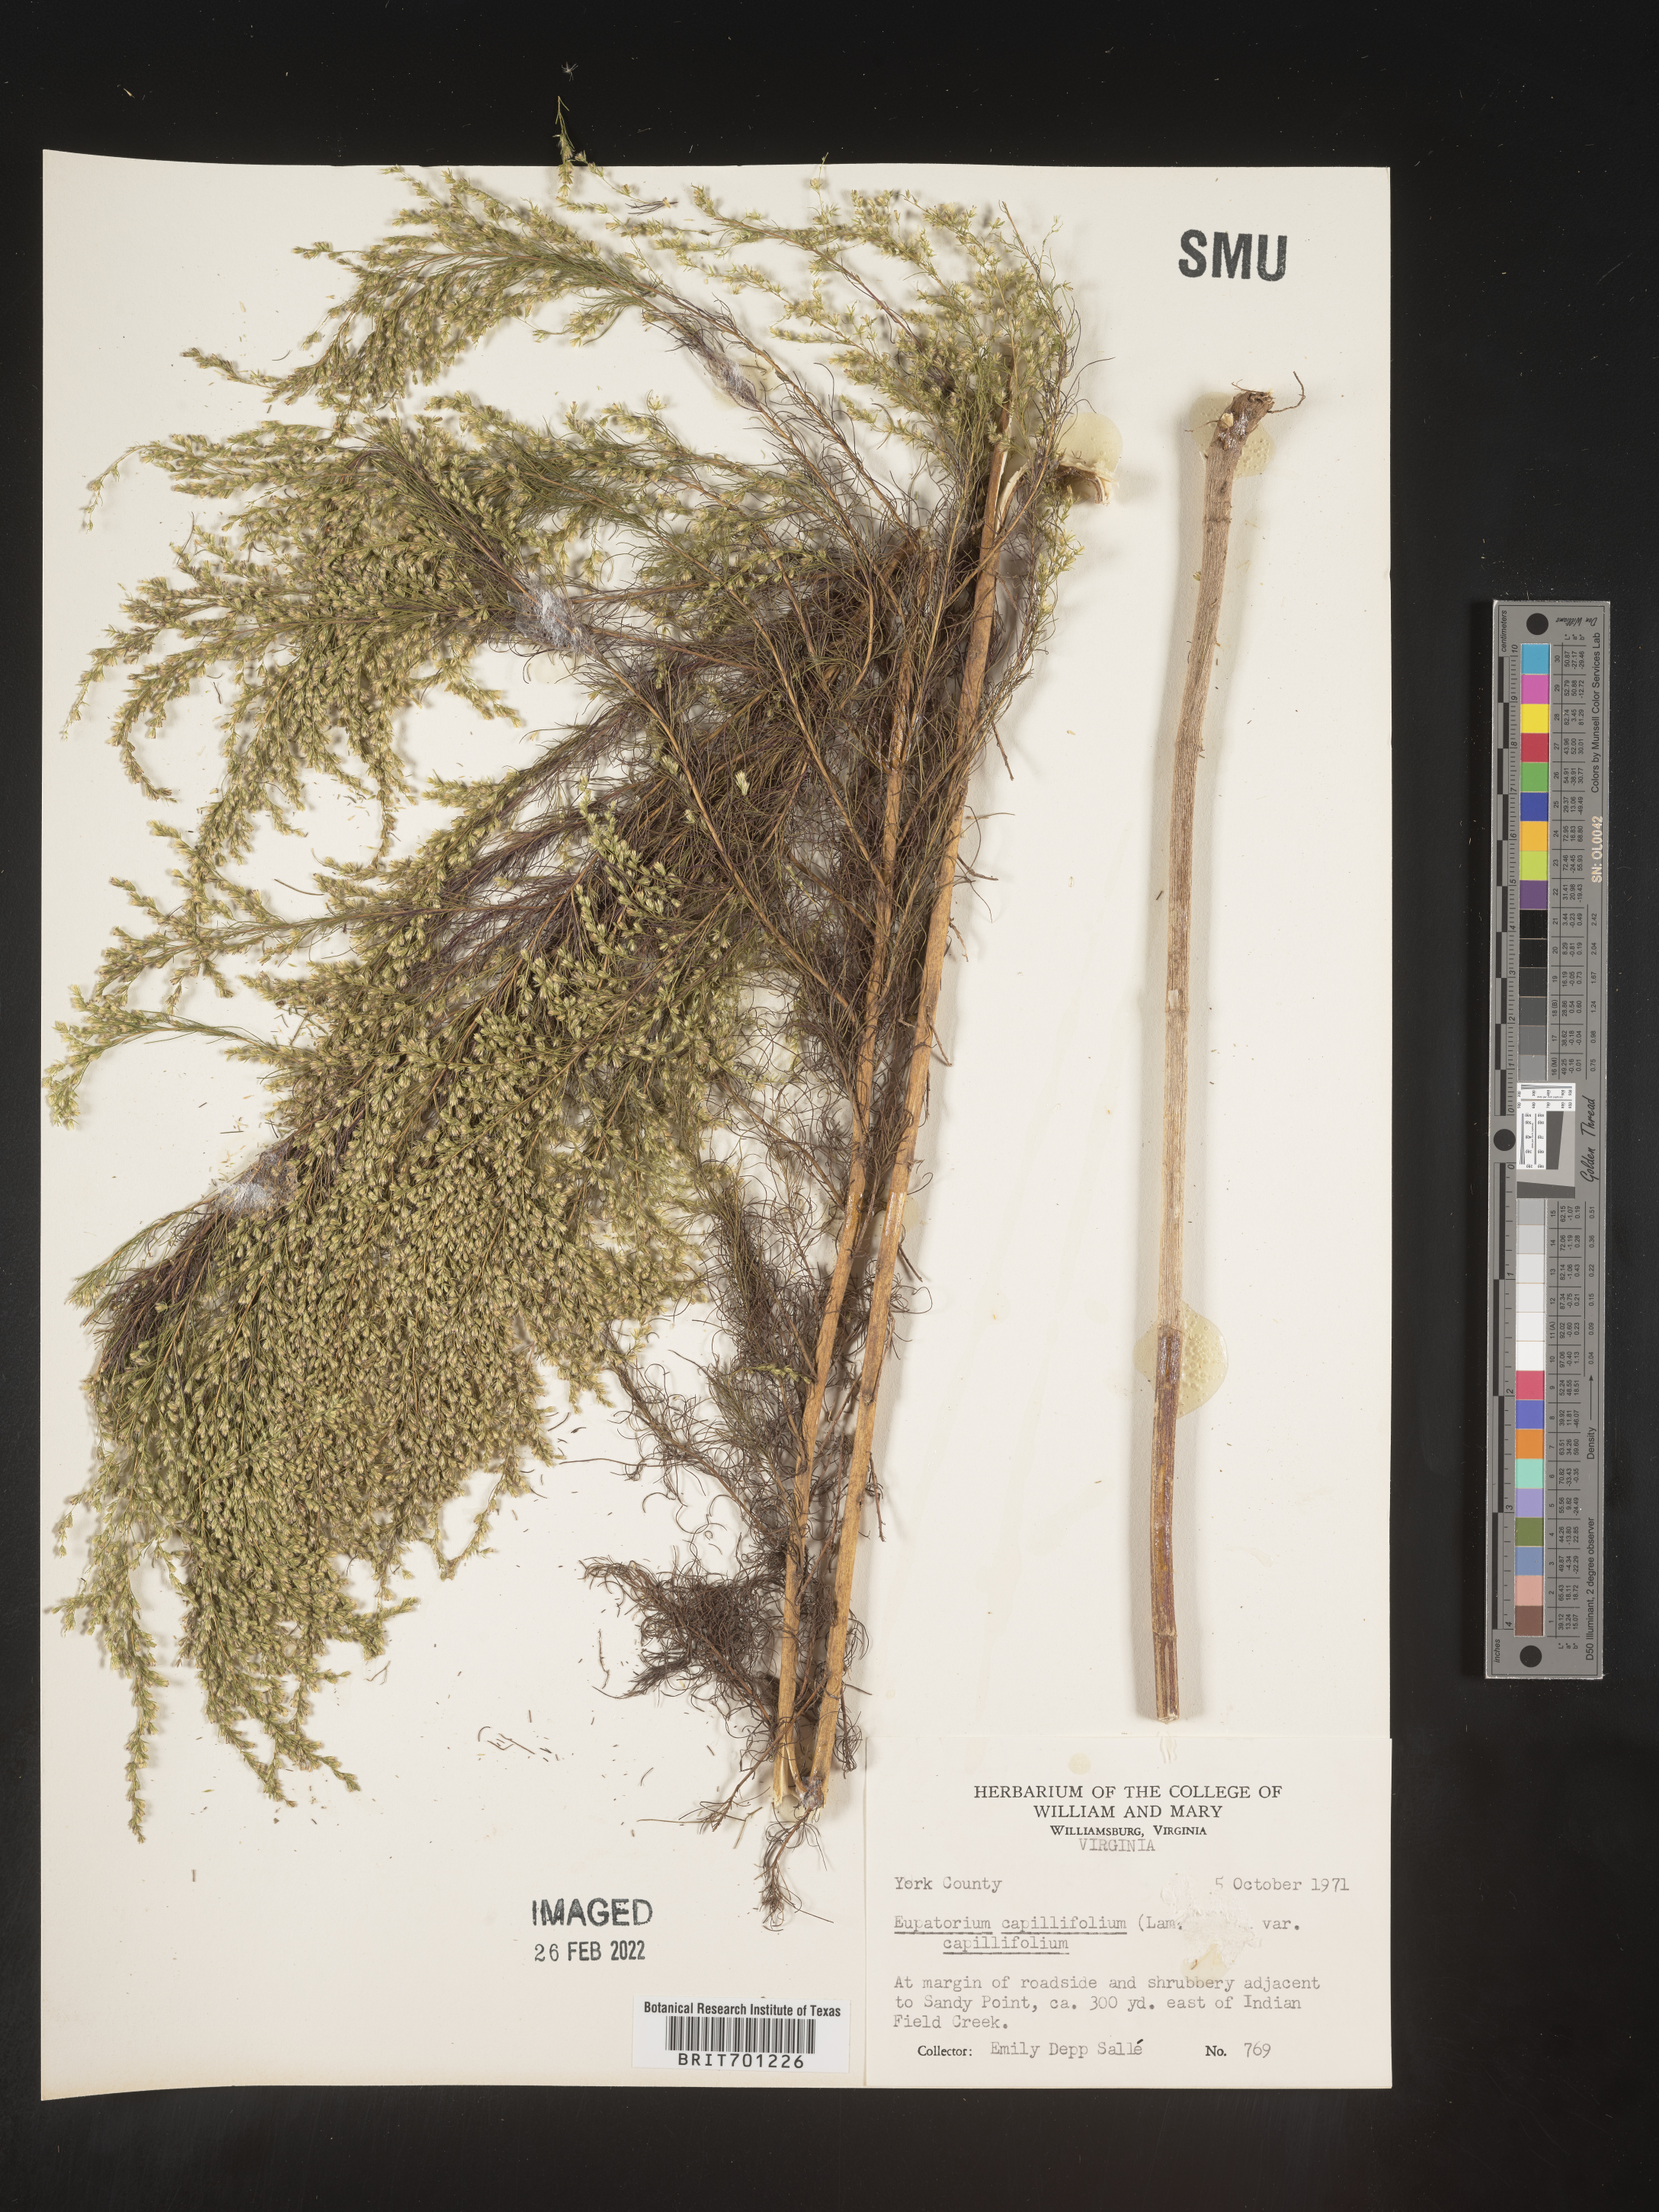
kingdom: Plantae
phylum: Tracheophyta
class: Magnoliopsida
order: Asterales
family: Asteraceae
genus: Eupatorium
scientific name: Eupatorium capillifolium
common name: Dog-fennel
